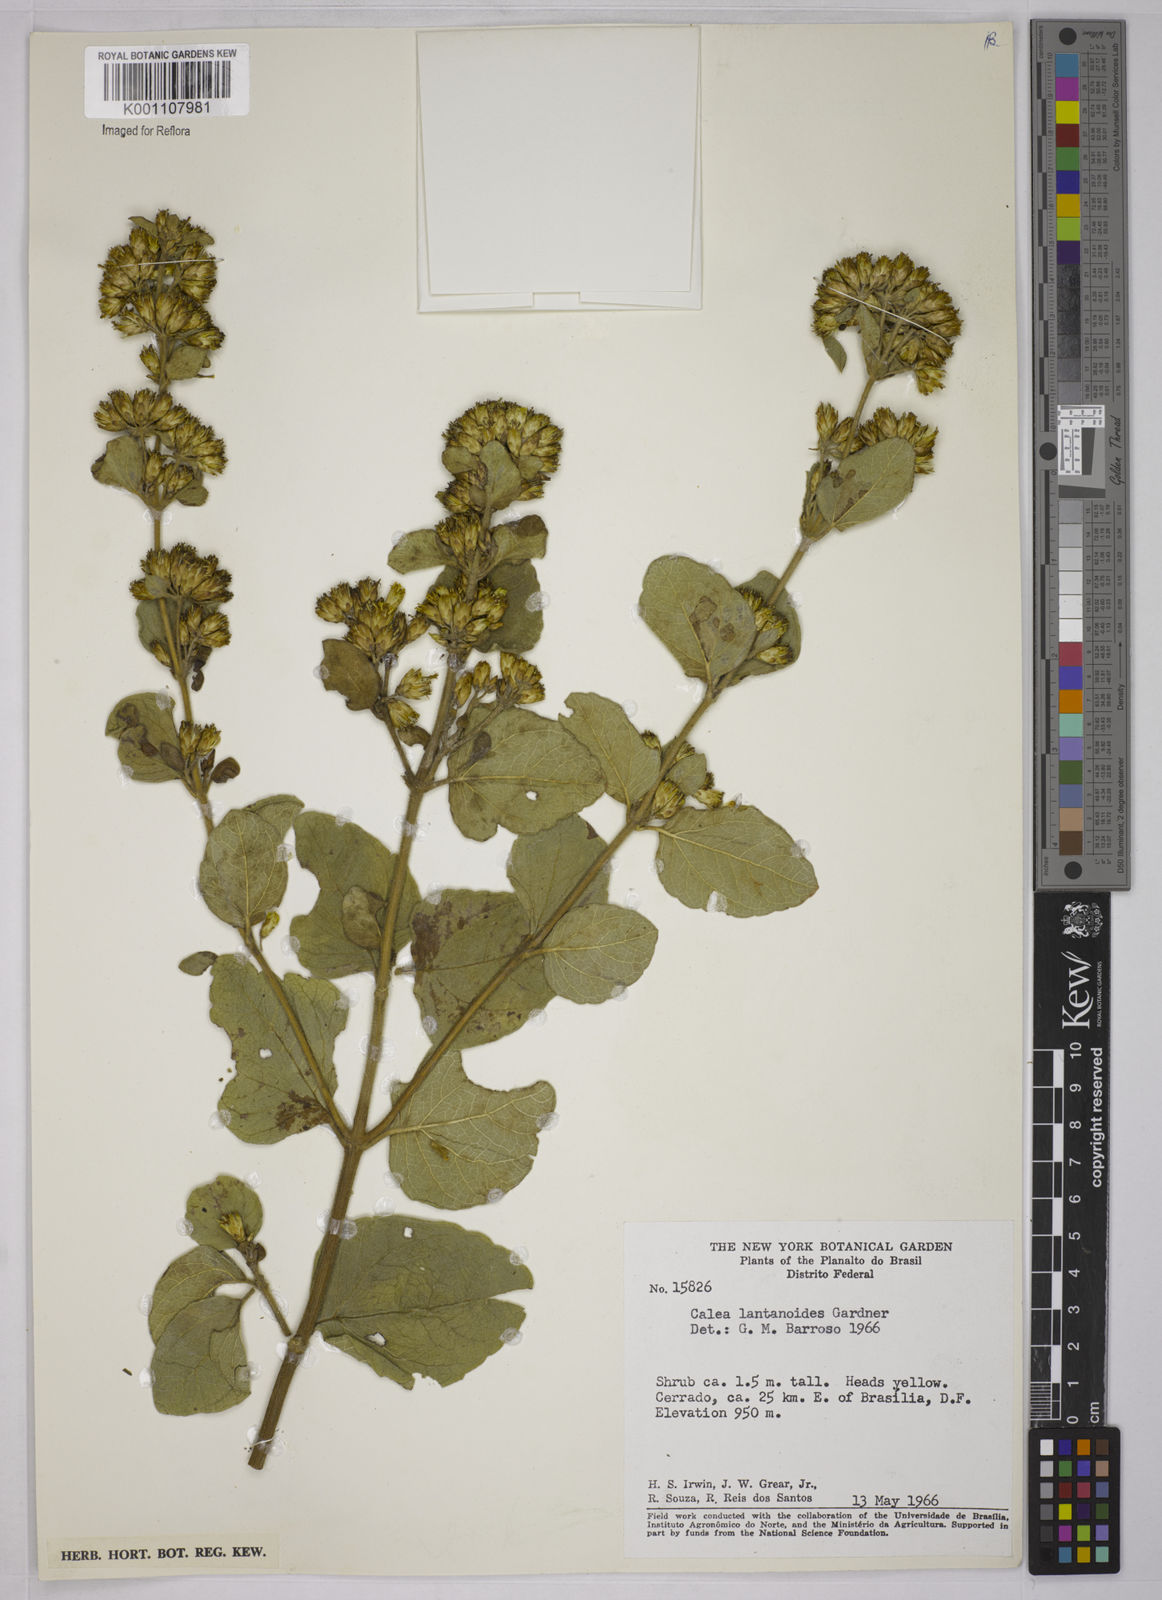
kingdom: Plantae
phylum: Tracheophyta
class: Magnoliopsida
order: Asterales
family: Asteraceae
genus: Calea
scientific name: Calea lantanoides
